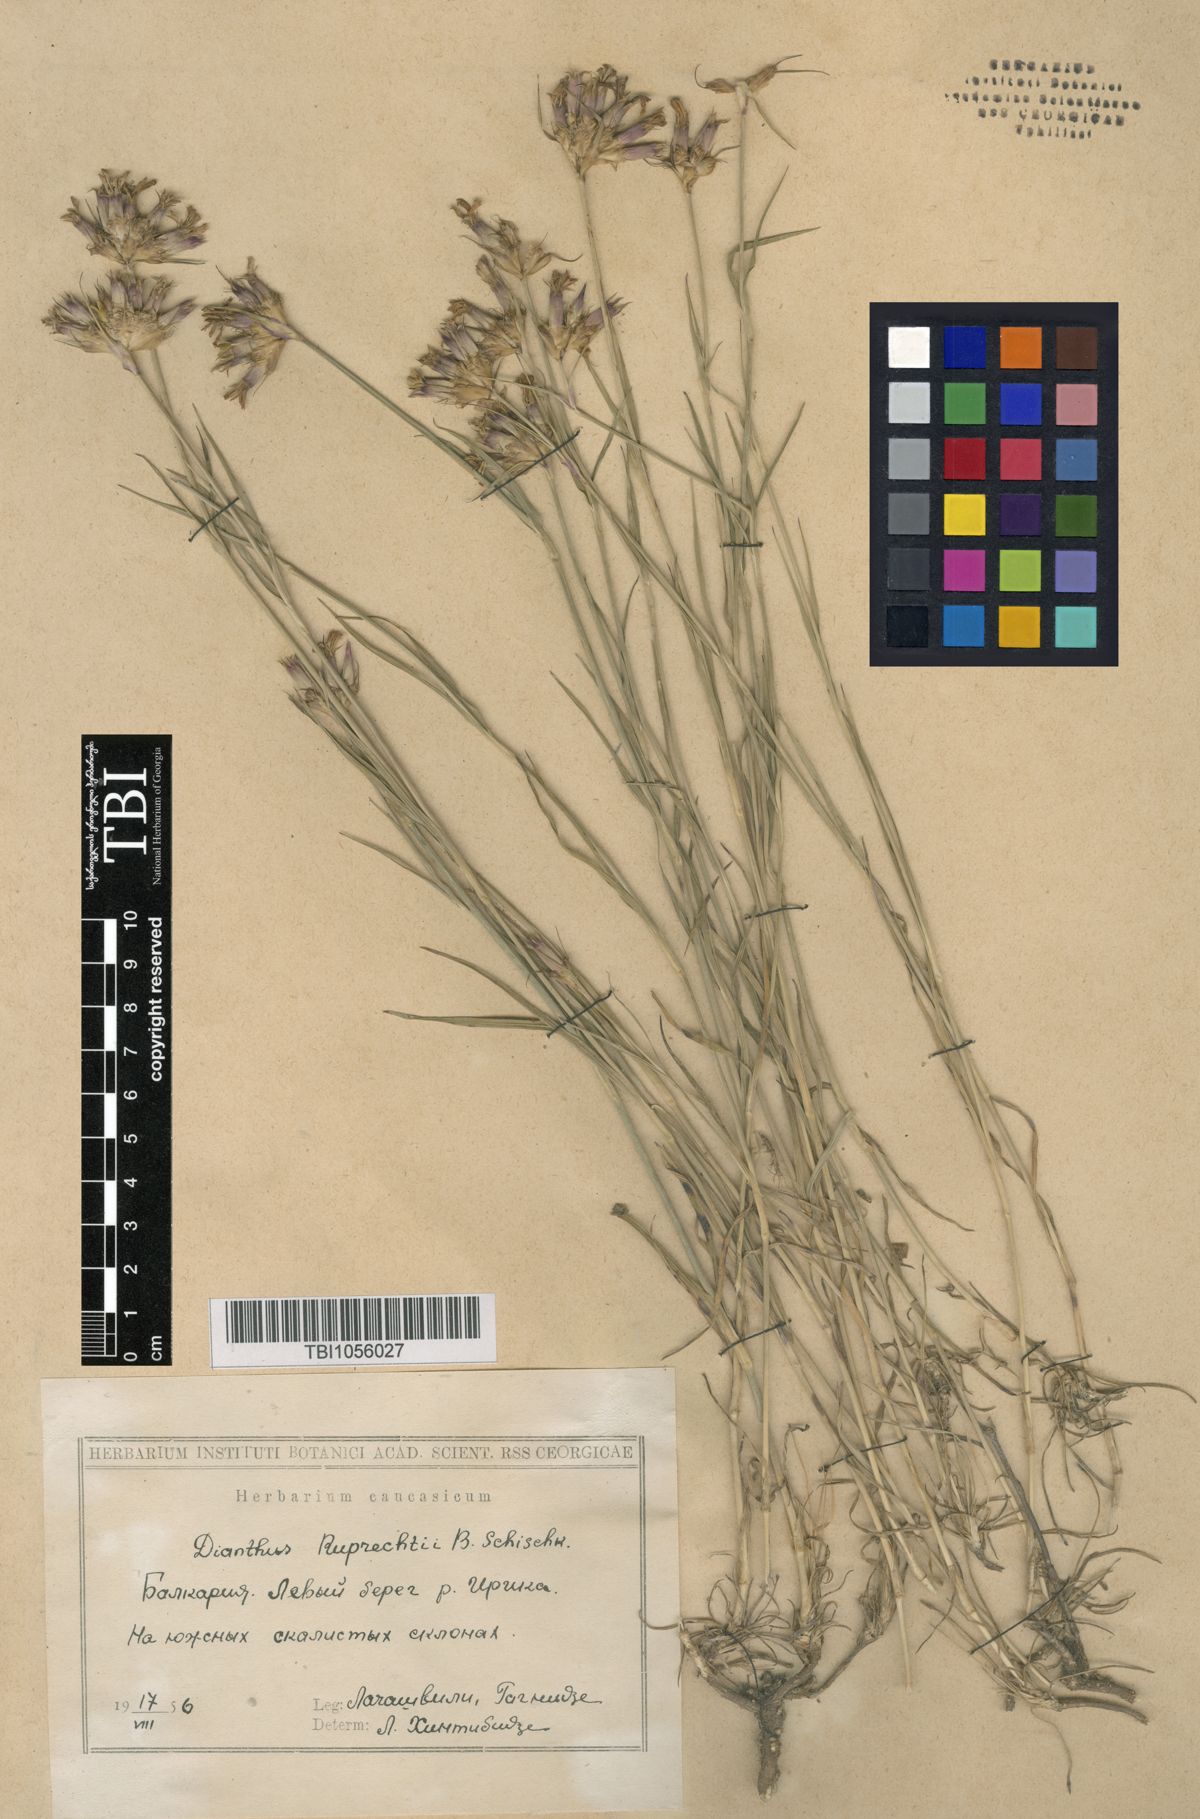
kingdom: Plantae
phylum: Tracheophyta
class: Magnoliopsida
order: Caryophyllales
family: Caryophyllaceae
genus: Dianthus
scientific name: Dianthus ruprechtii
